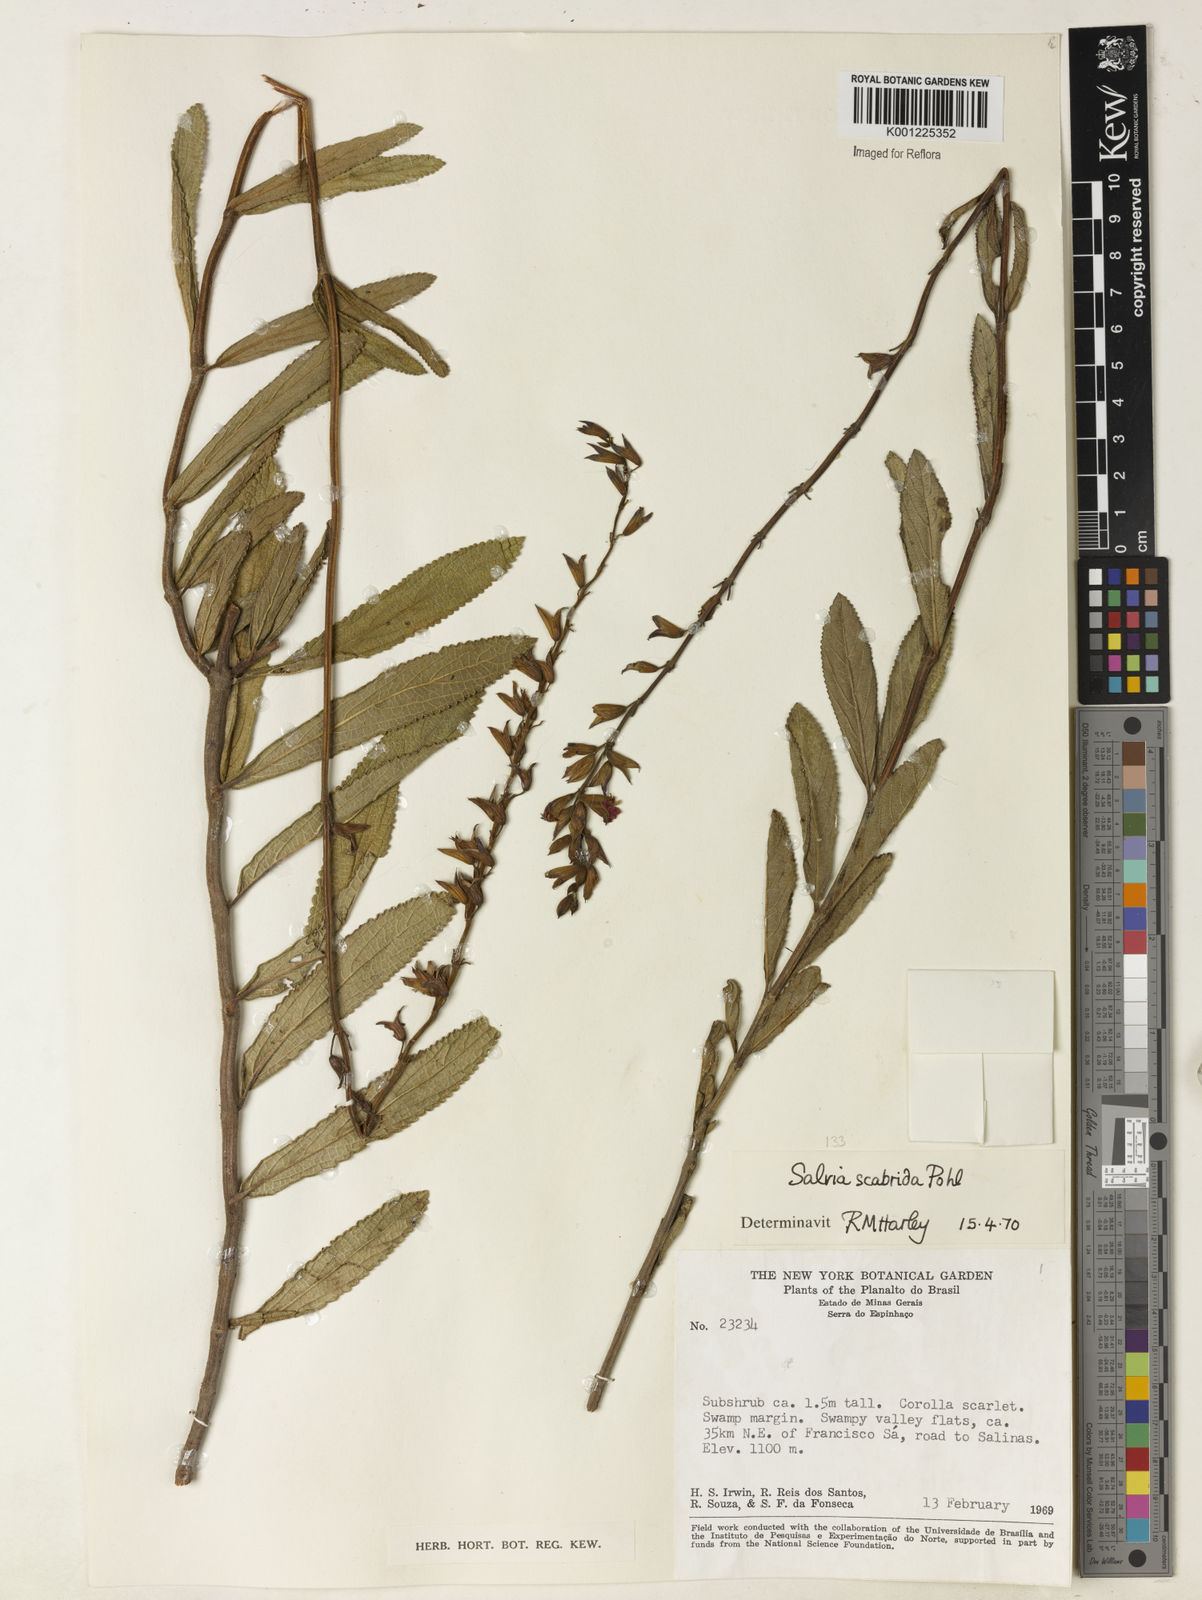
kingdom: Plantae
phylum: Tracheophyta
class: Magnoliopsida
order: Lamiales
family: Lamiaceae
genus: Salvia
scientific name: Salvia scabrida
